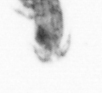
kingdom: Animalia
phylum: Arthropoda
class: Copepoda
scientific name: Copepoda
